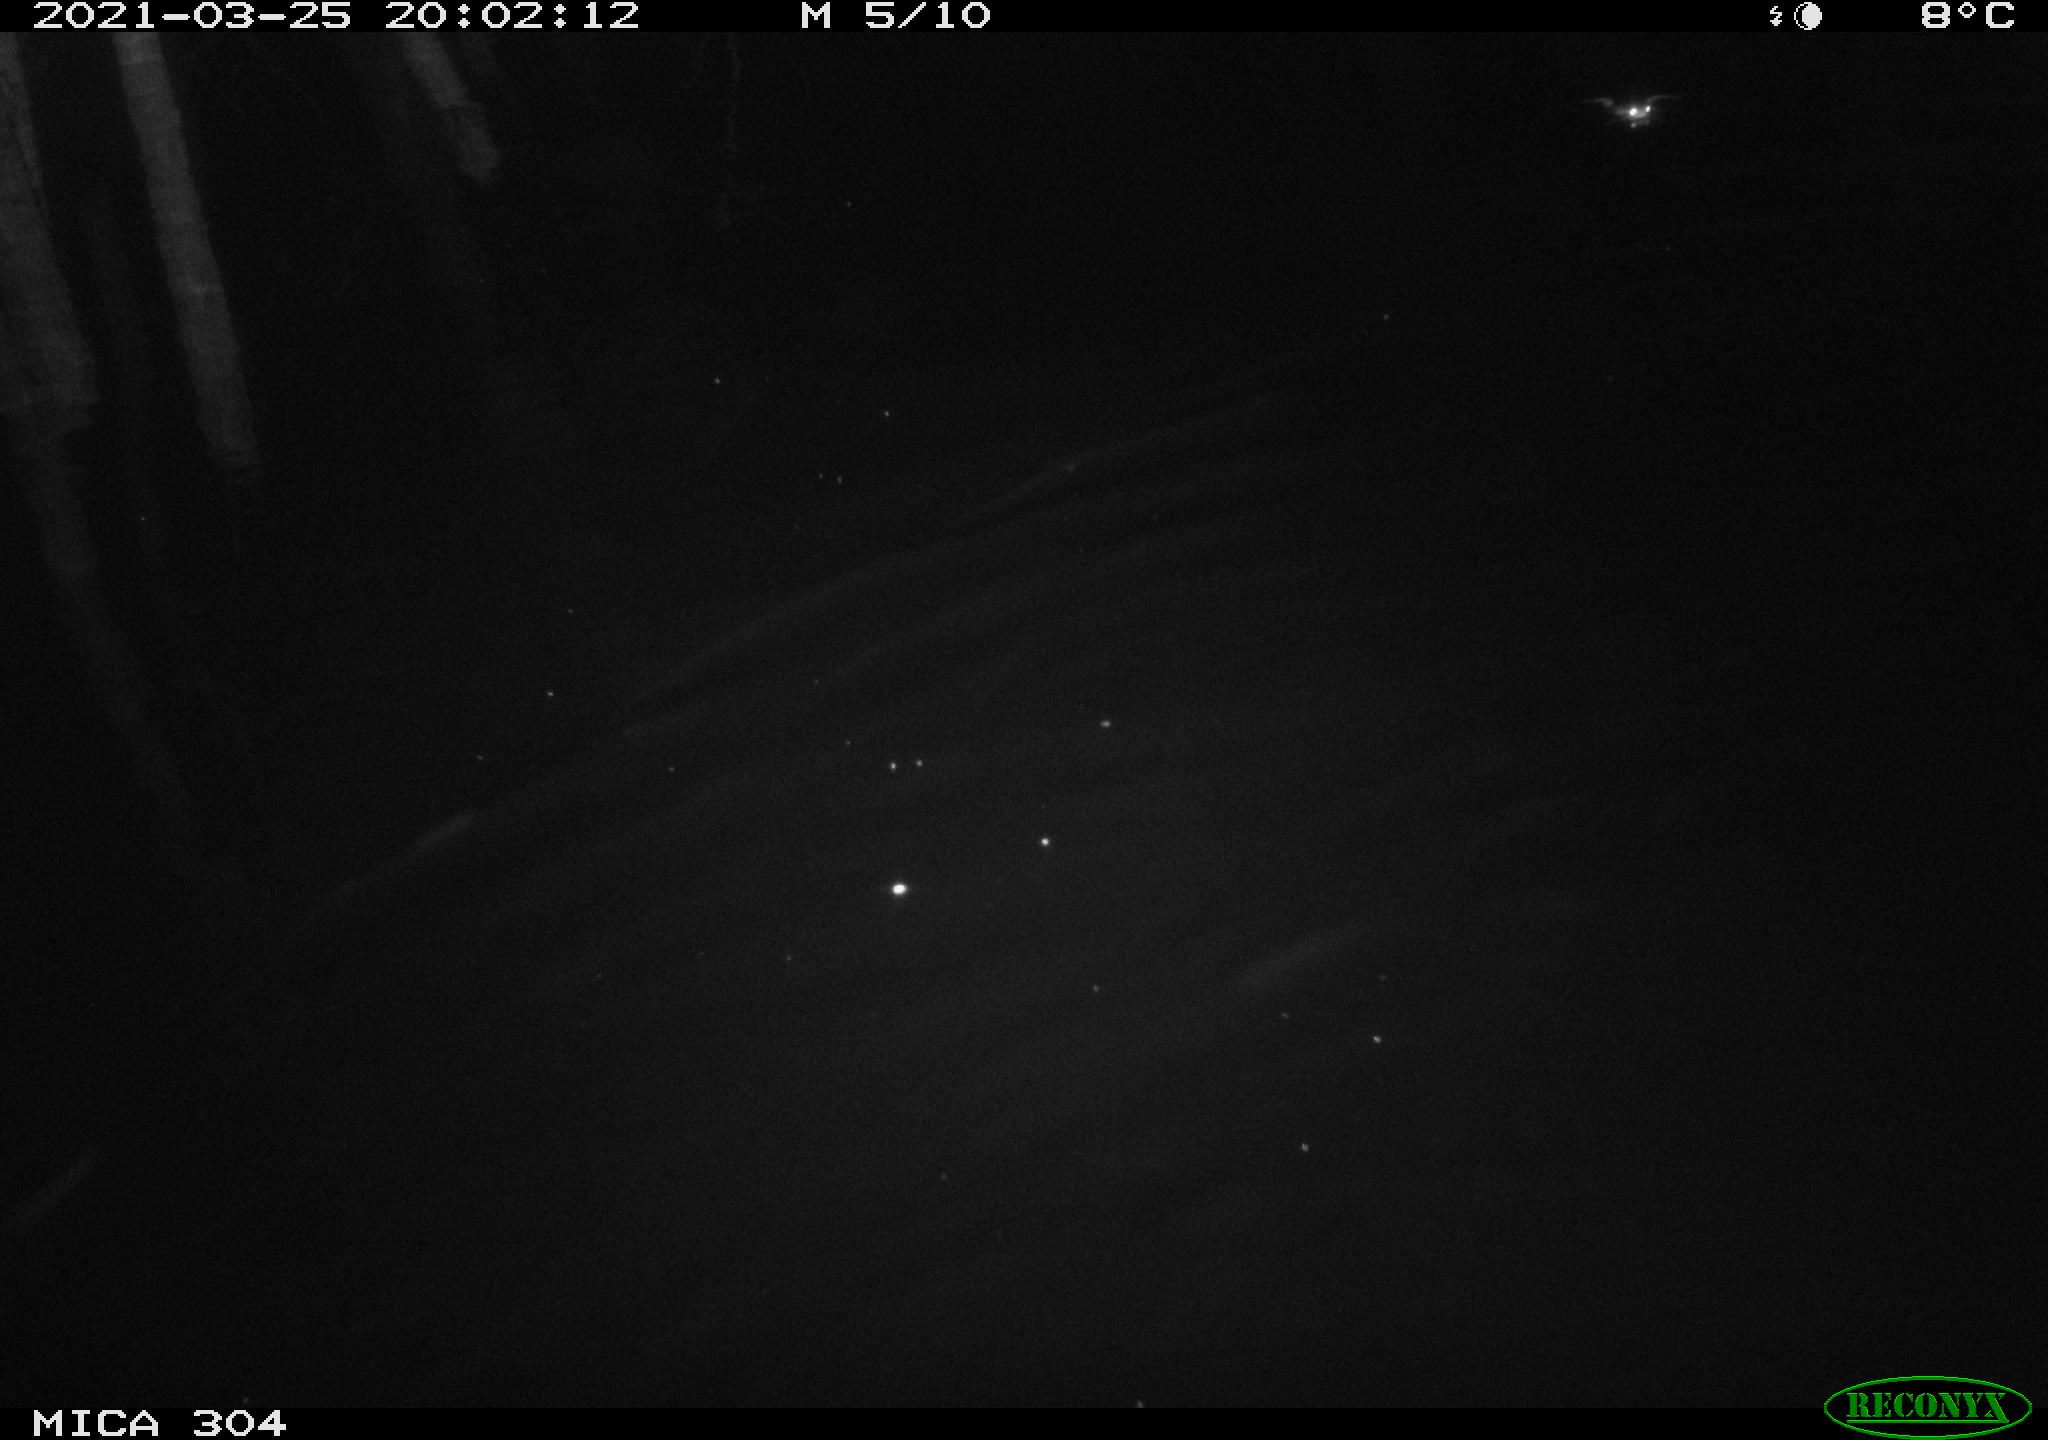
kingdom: Animalia
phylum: Chordata
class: Aves
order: Anseriformes
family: Anatidae
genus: Anas
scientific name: Anas platyrhynchos
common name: Mallard
